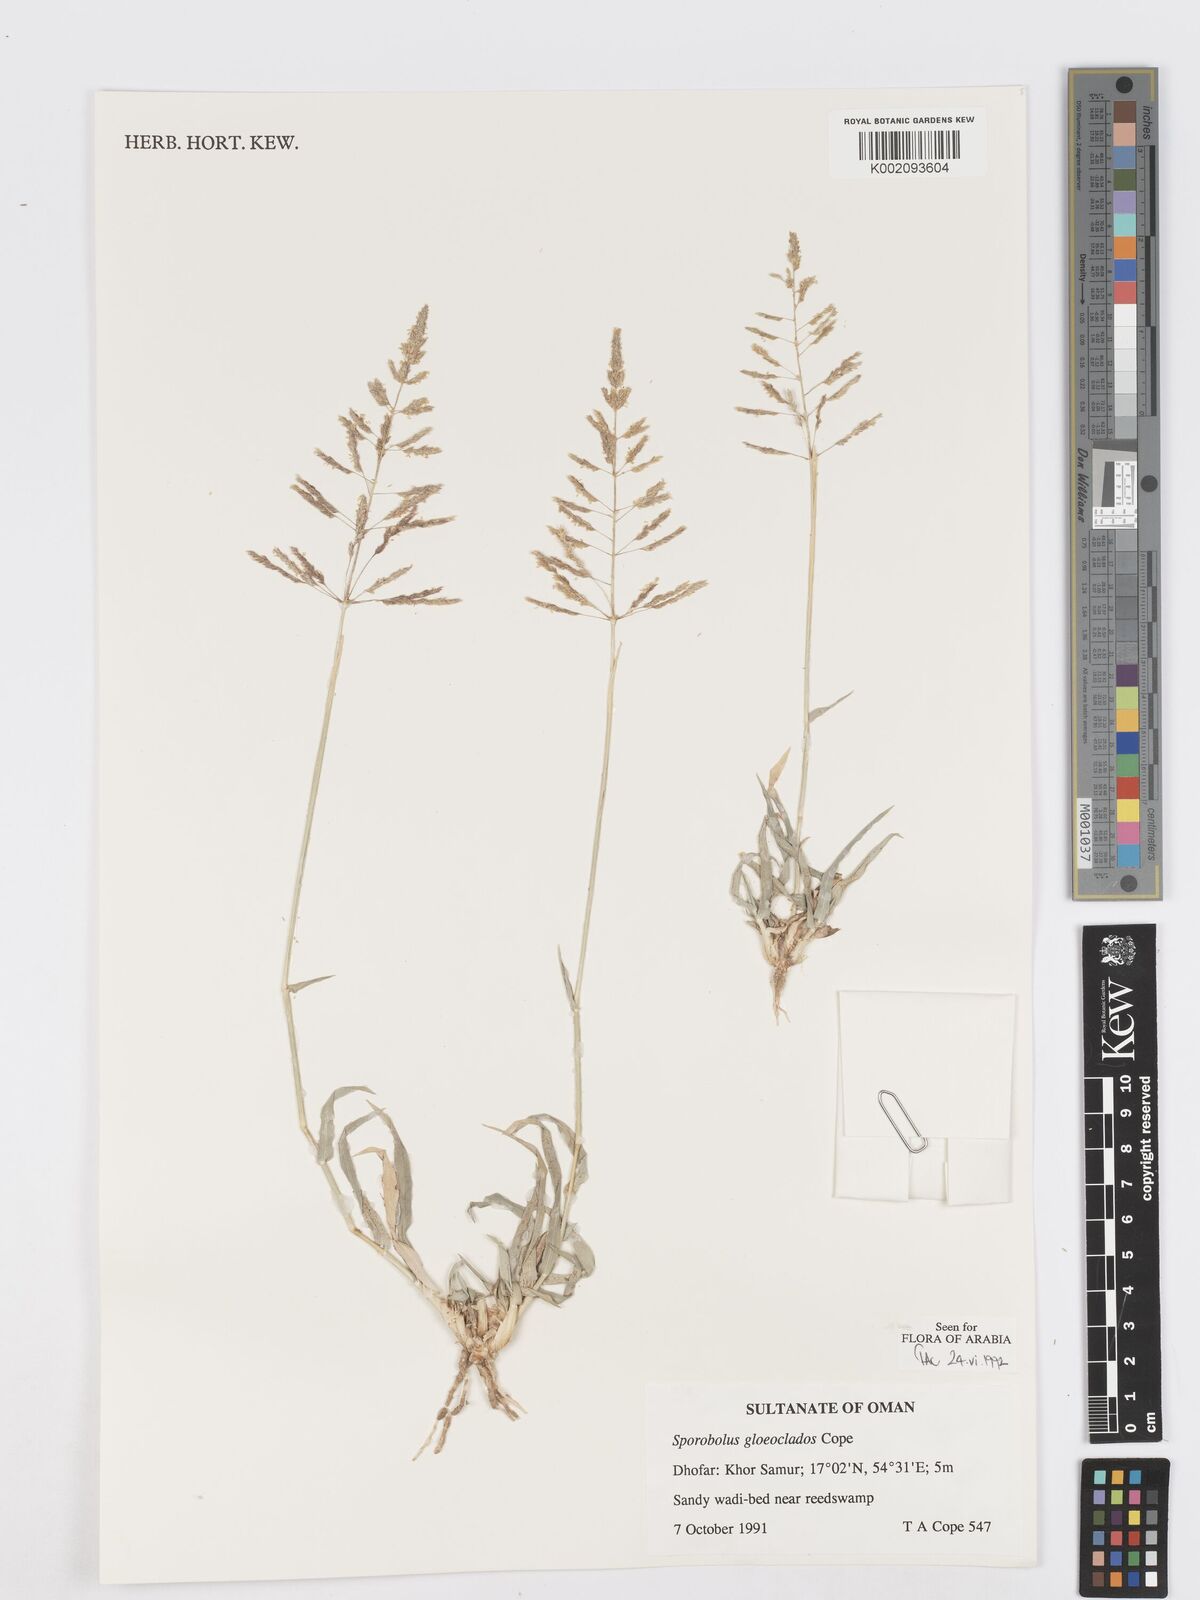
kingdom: Plantae
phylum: Tracheophyta
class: Liliopsida
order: Poales
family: Poaceae
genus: Sporobolus
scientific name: Sporobolus gloeoclados
